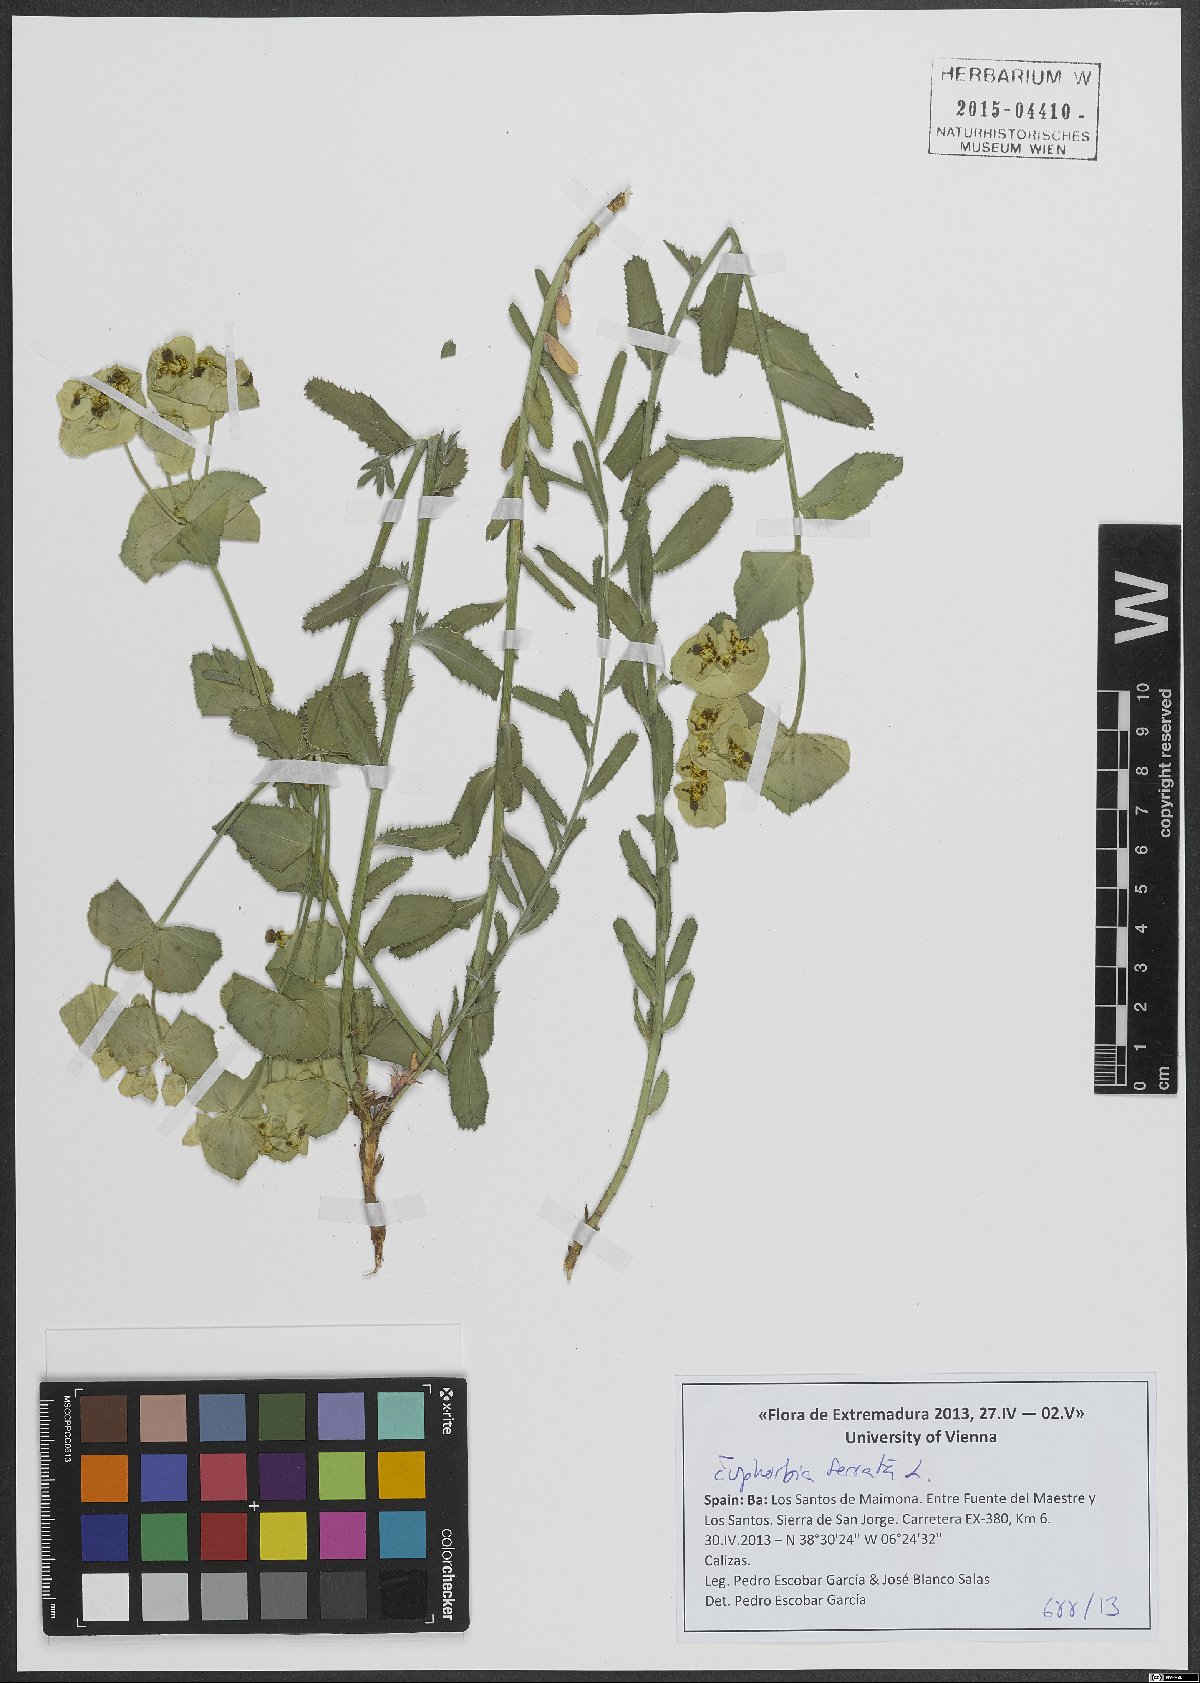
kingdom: Plantae
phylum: Tracheophyta
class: Magnoliopsida
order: Malpighiales
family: Euphorbiaceae
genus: Euphorbia
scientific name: Euphorbia serrata
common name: Serrate spurge
